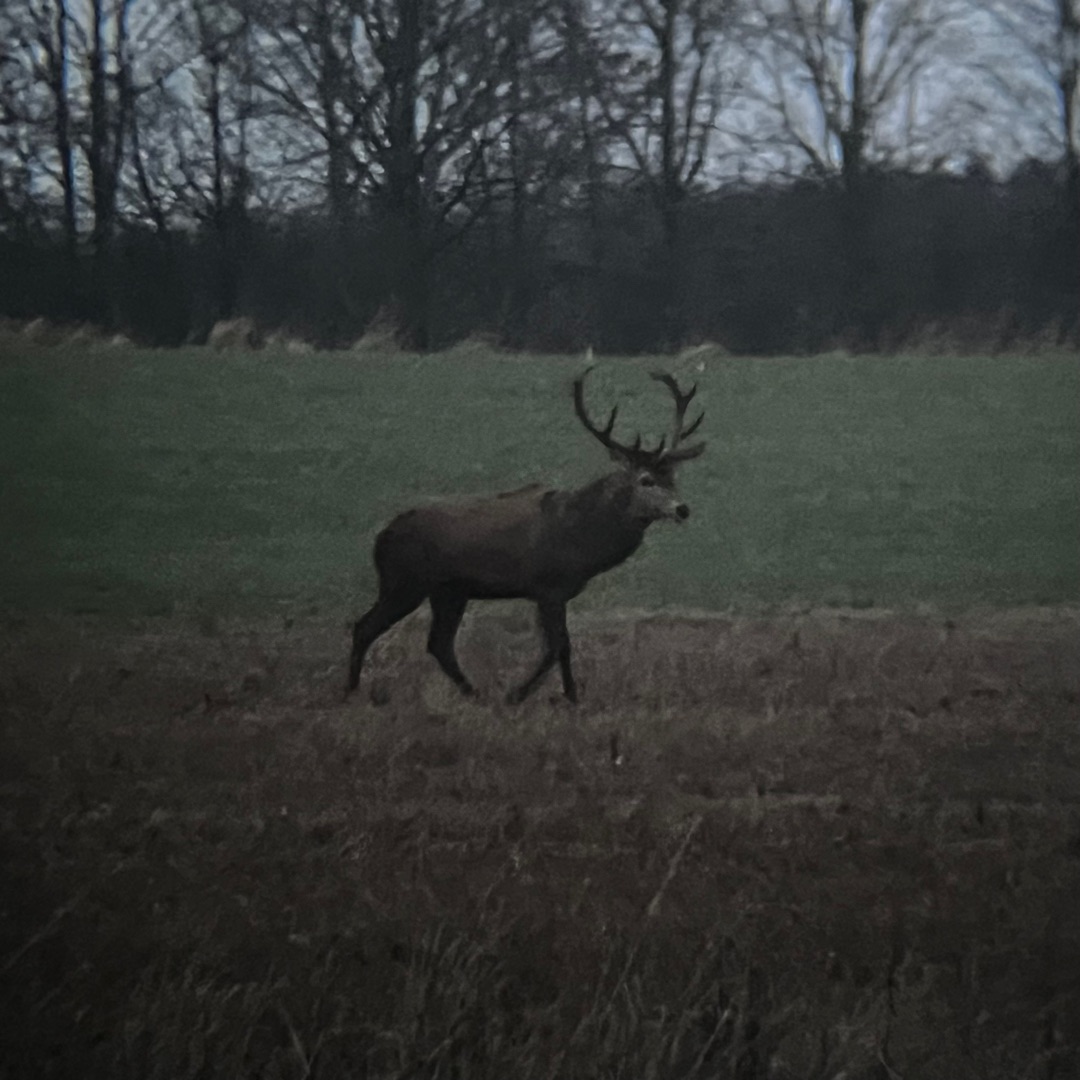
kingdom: Animalia
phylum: Chordata
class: Mammalia
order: Artiodactyla
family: Cervidae
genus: Cervus
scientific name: Cervus elaphus
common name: Krondyr
